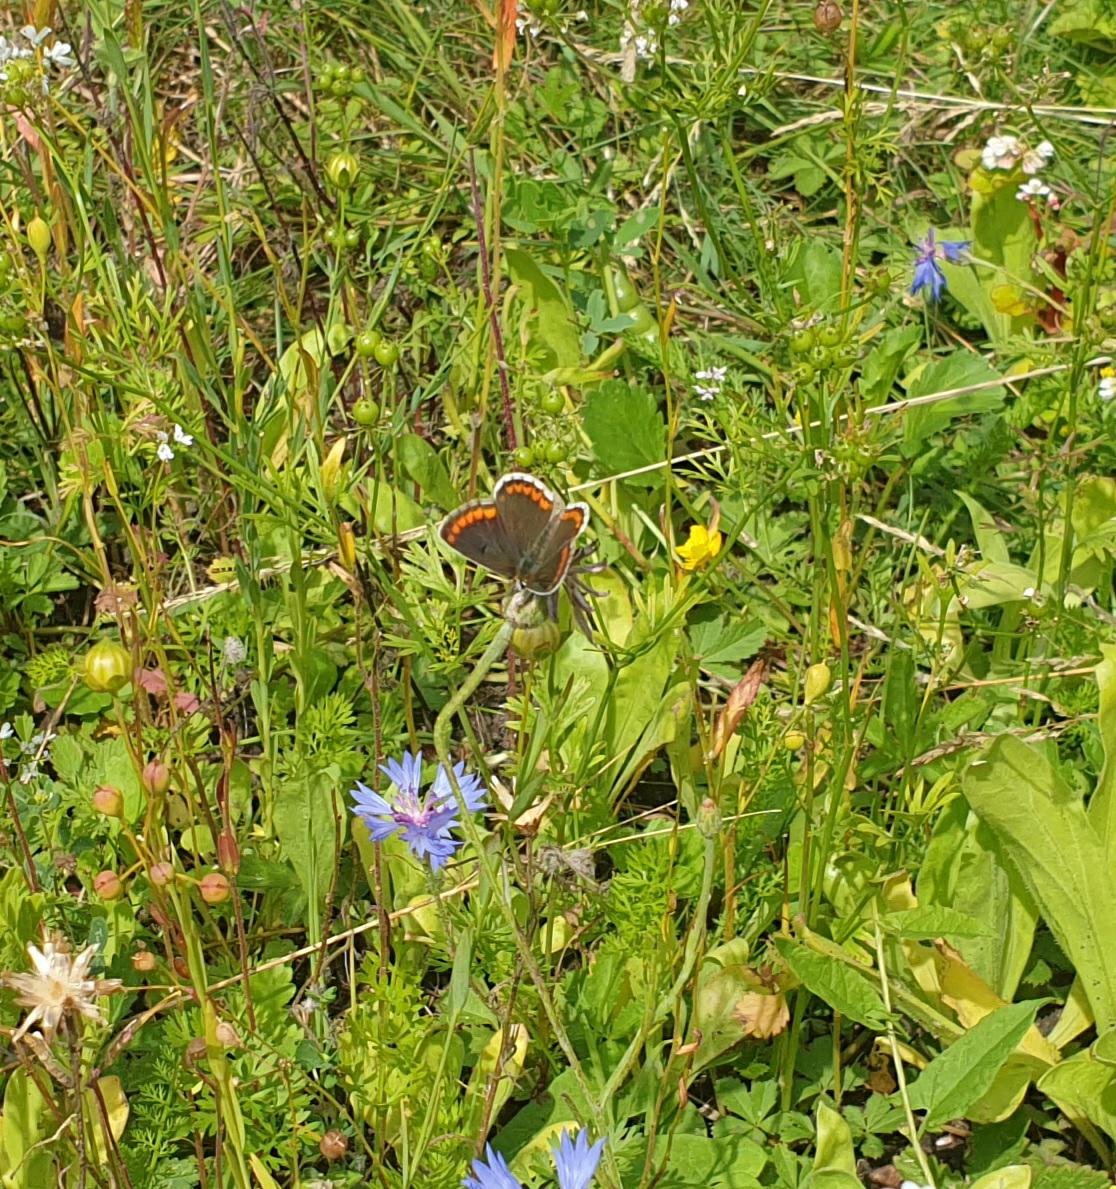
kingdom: Animalia
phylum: Arthropoda
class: Insecta
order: Lepidoptera
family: Lycaenidae
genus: Aricia
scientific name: Aricia agestis
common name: Rødplettet blåfugl
